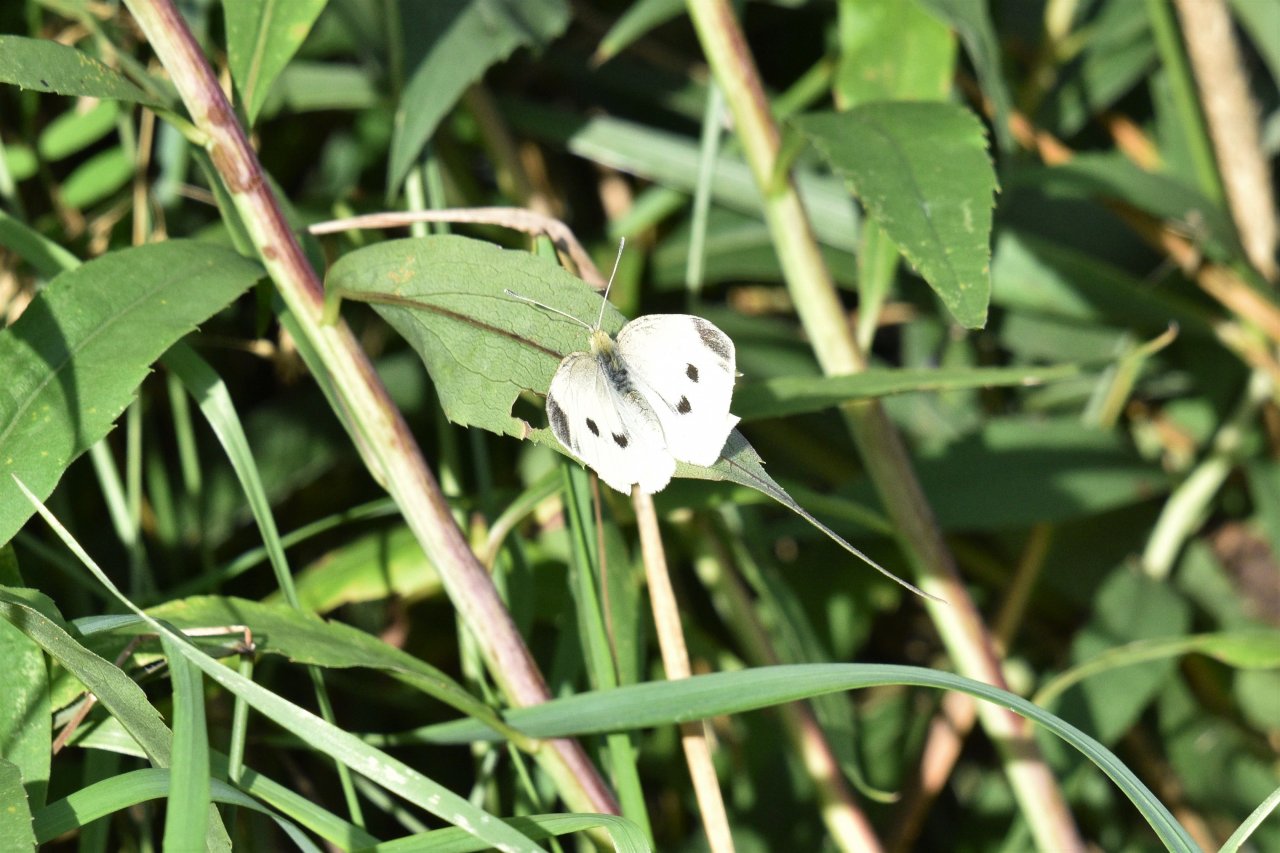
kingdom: Animalia
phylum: Arthropoda
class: Insecta
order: Lepidoptera
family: Pieridae
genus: Pieris
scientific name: Pieris rapae
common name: Cabbage White
